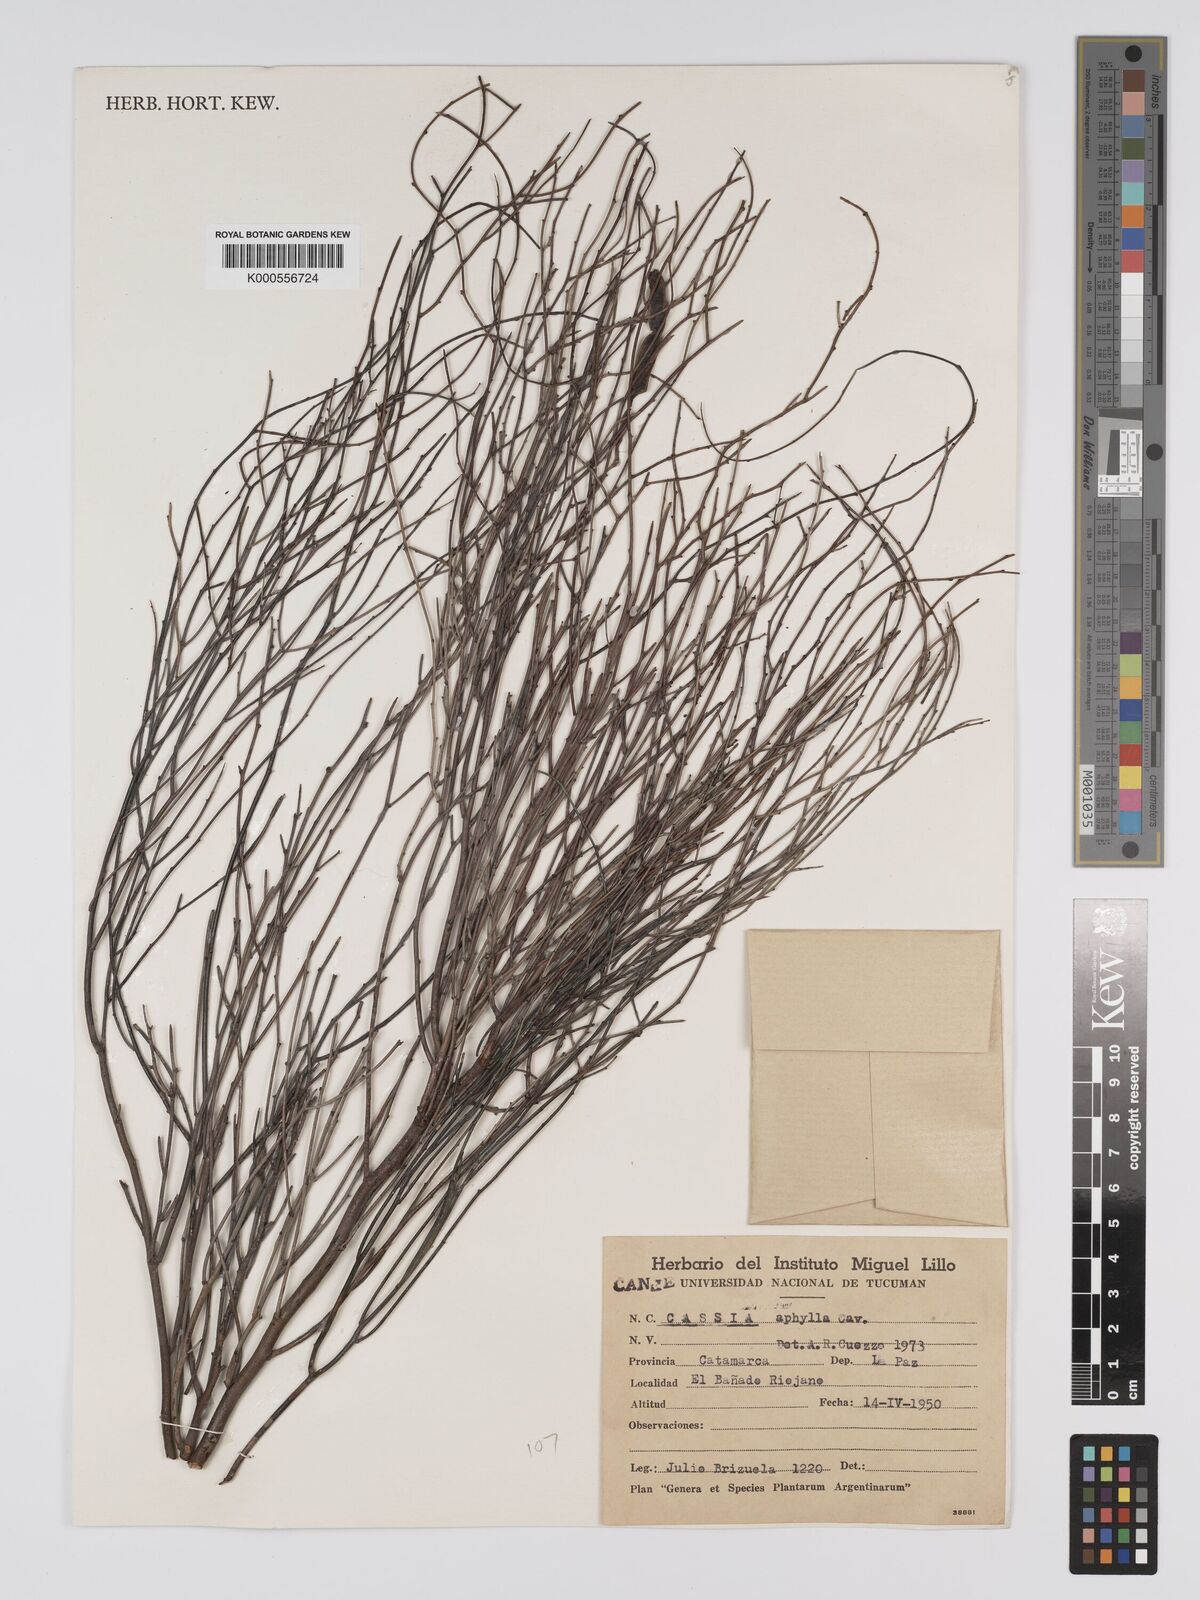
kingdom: Plantae
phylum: Tracheophyta
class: Magnoliopsida
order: Fabales
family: Fabaceae
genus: Senna
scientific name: Senna aphylla
